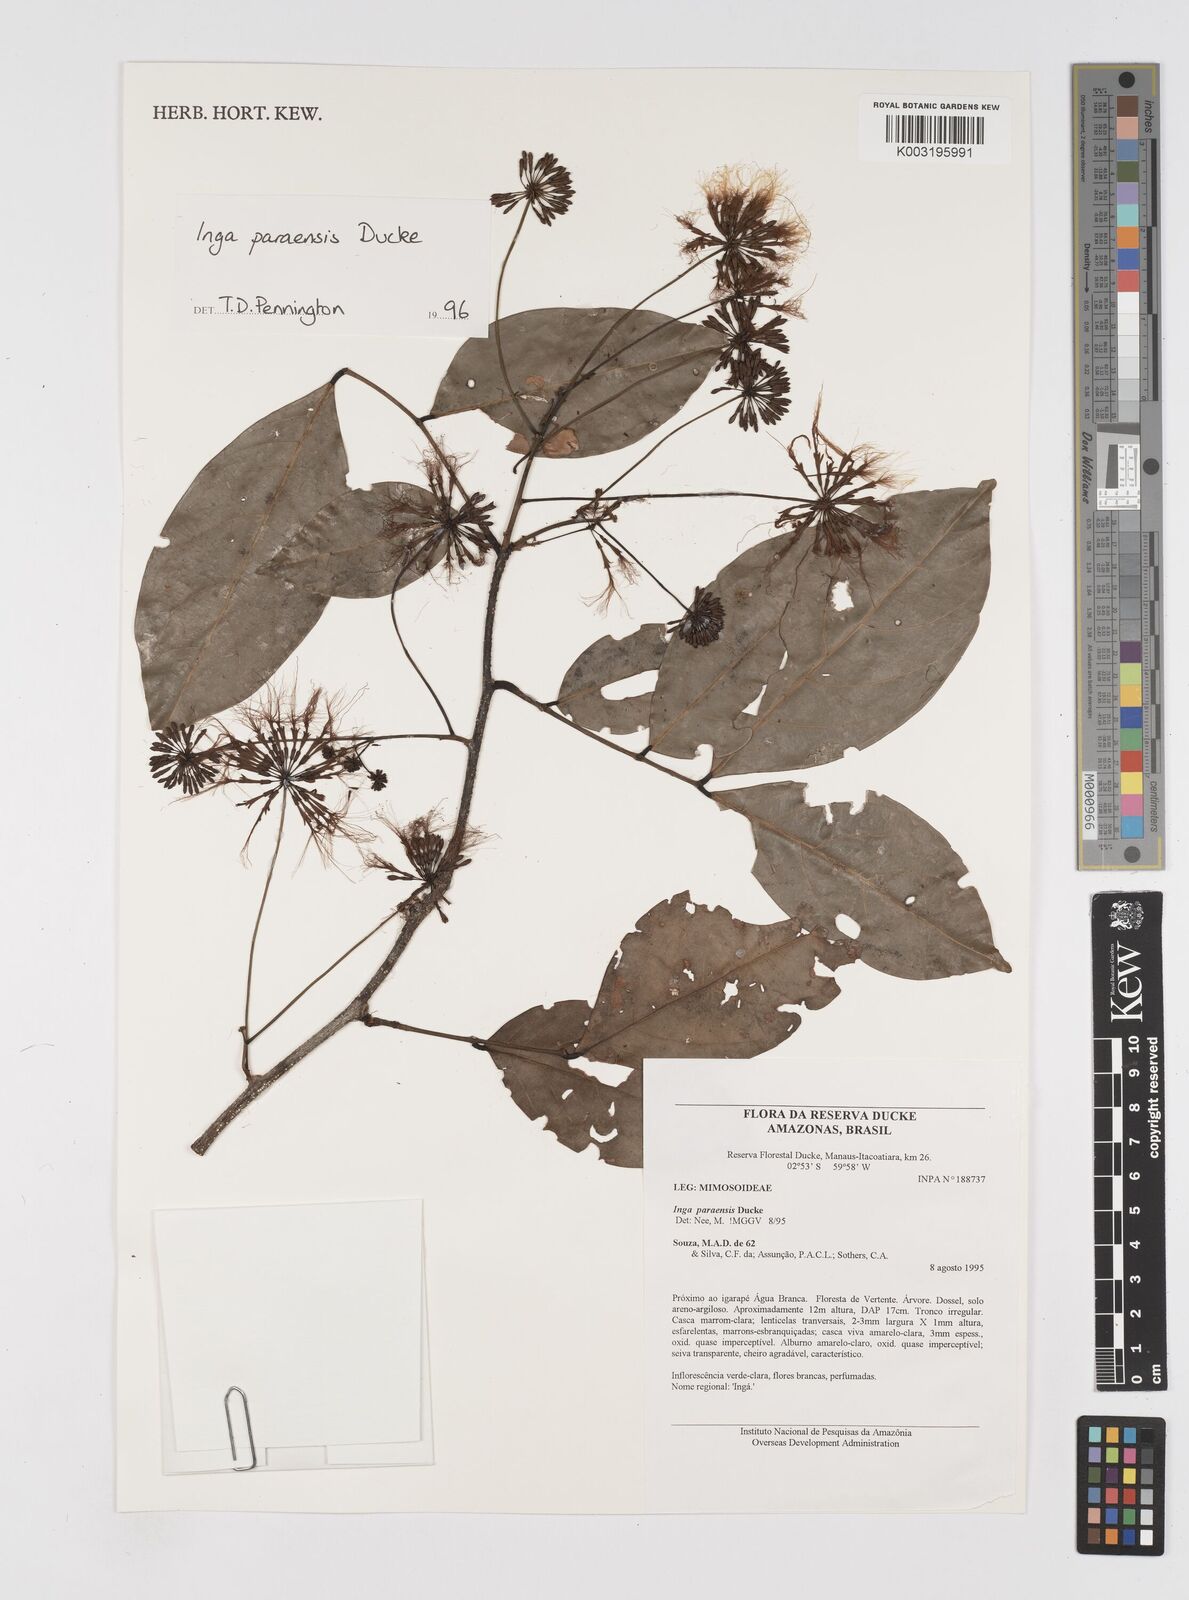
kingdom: Plantae
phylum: Tracheophyta
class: Magnoliopsida
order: Fabales
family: Fabaceae
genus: Inga
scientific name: Inga paraensis
